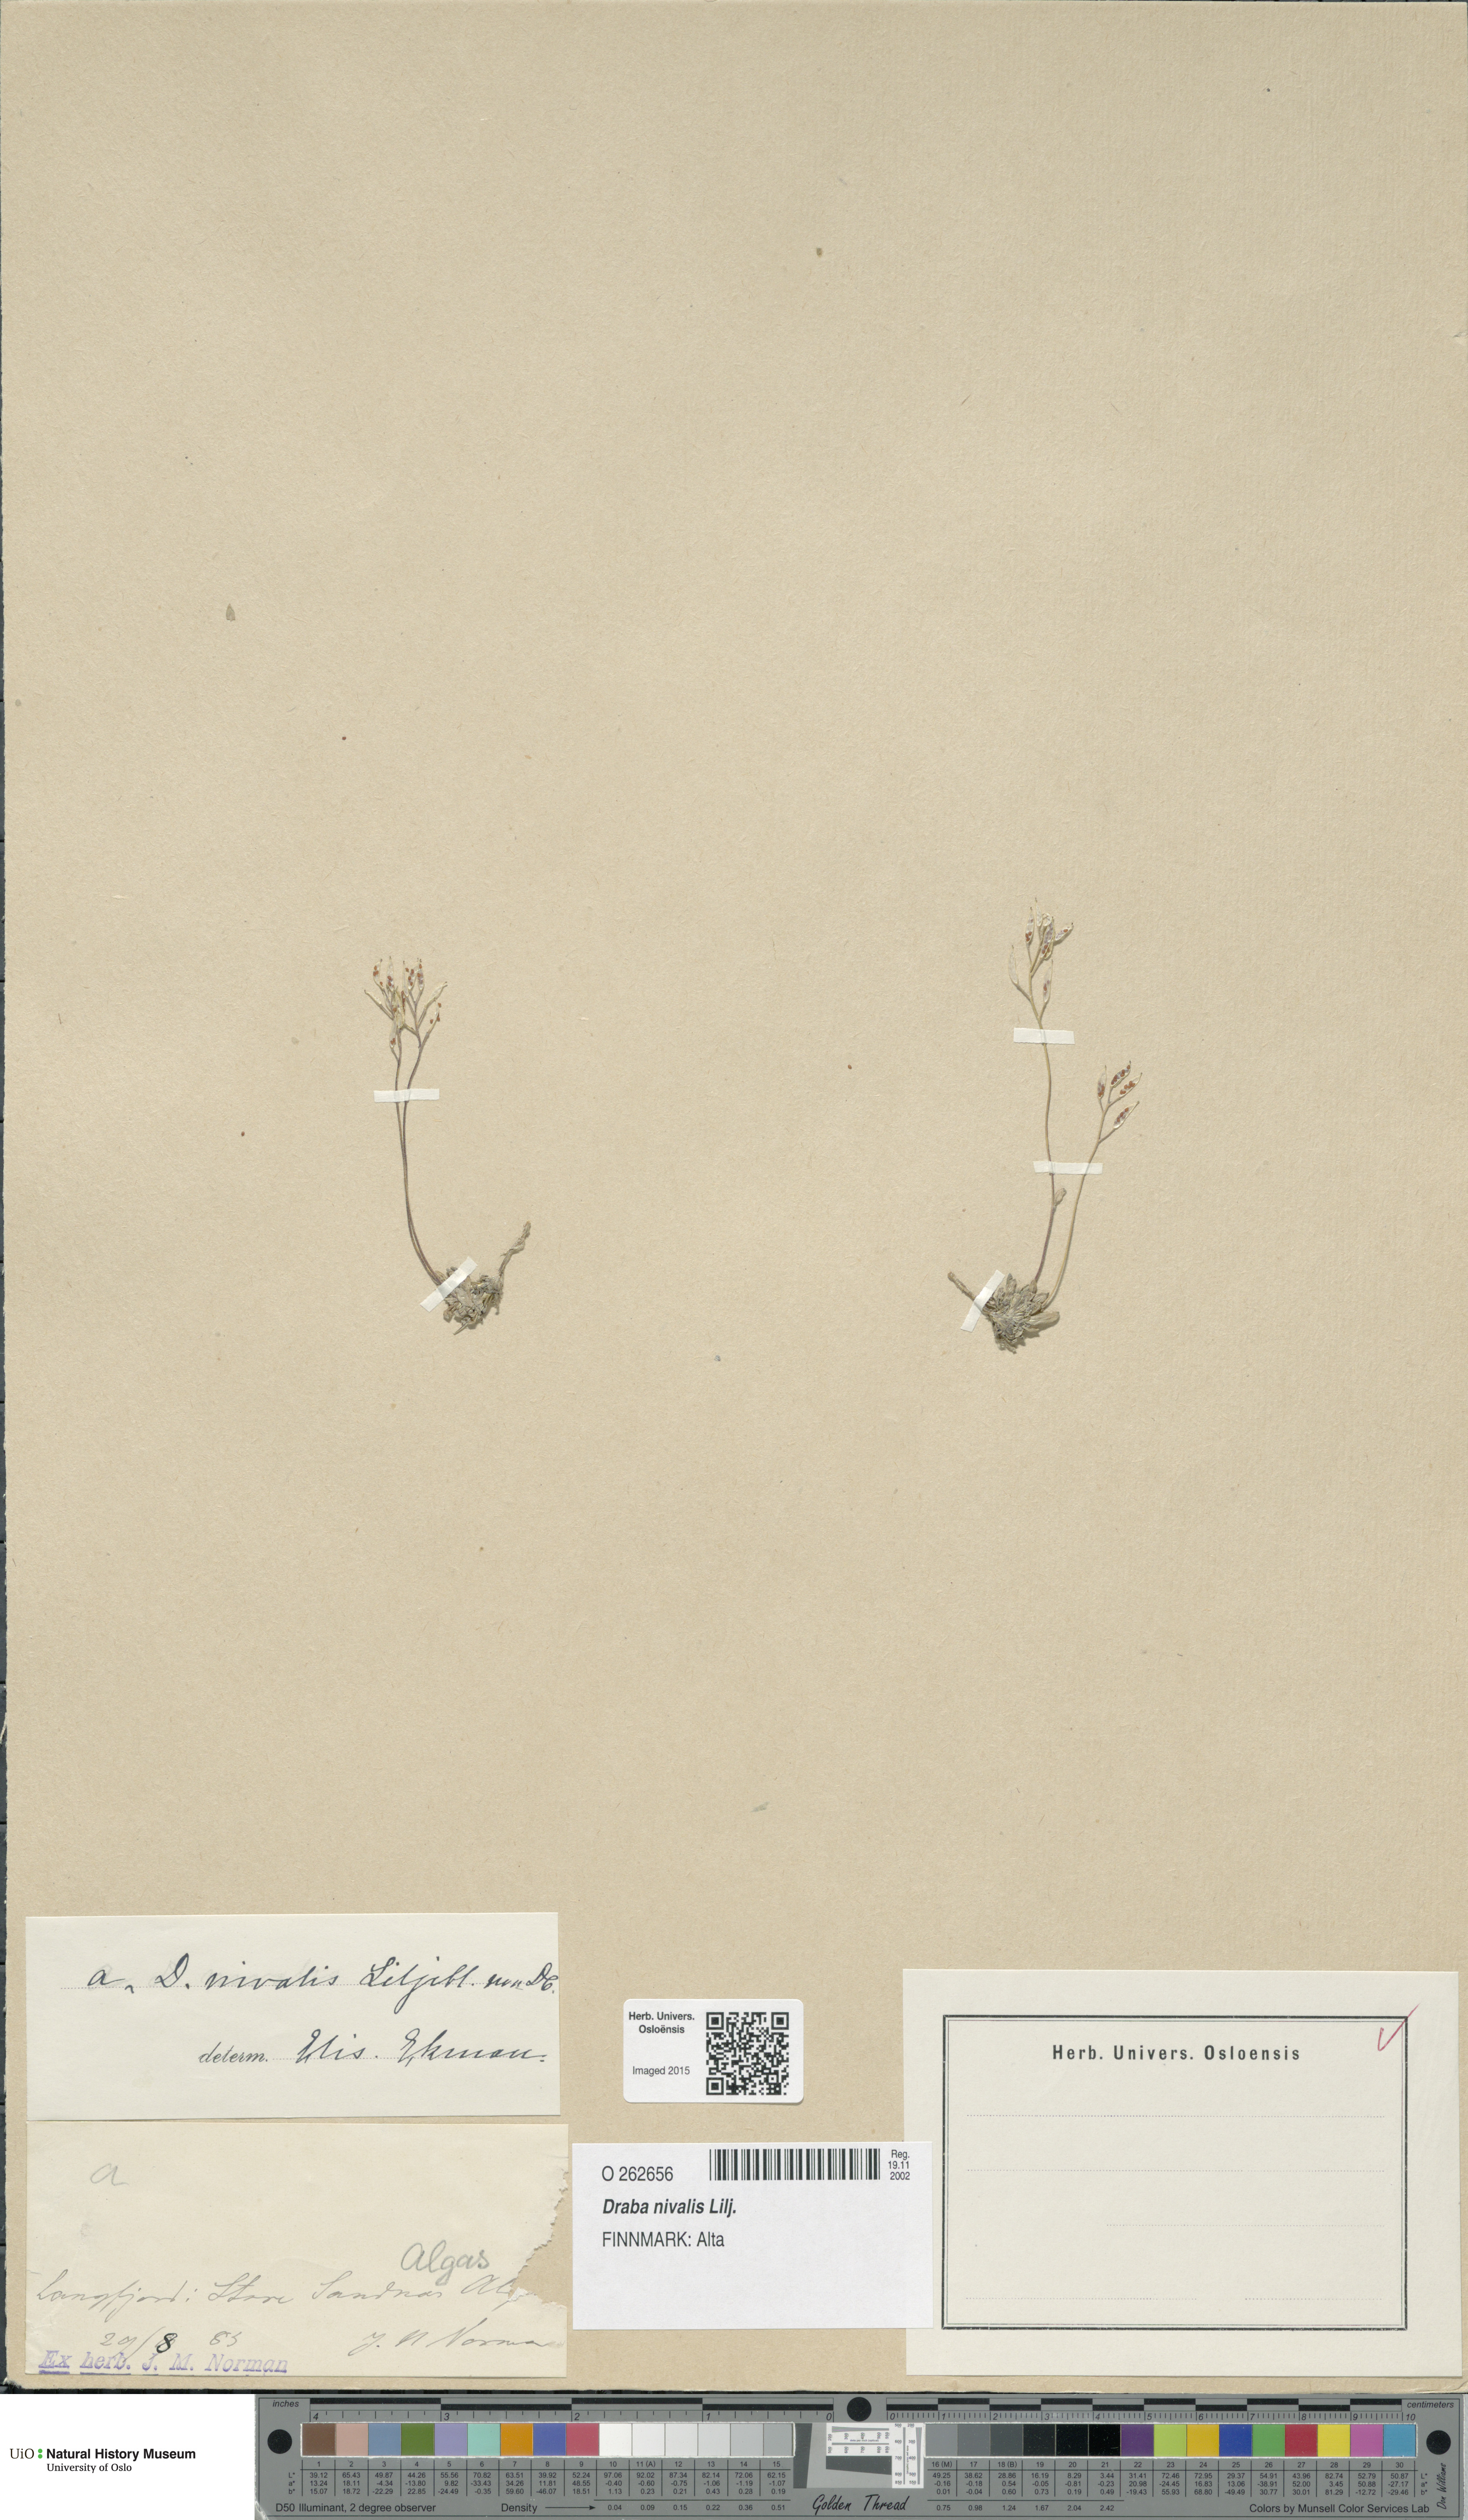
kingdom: Plantae
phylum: Tracheophyta
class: Magnoliopsida
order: Brassicales
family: Brassicaceae
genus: Draba
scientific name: Draba nivalis
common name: Snow draba
